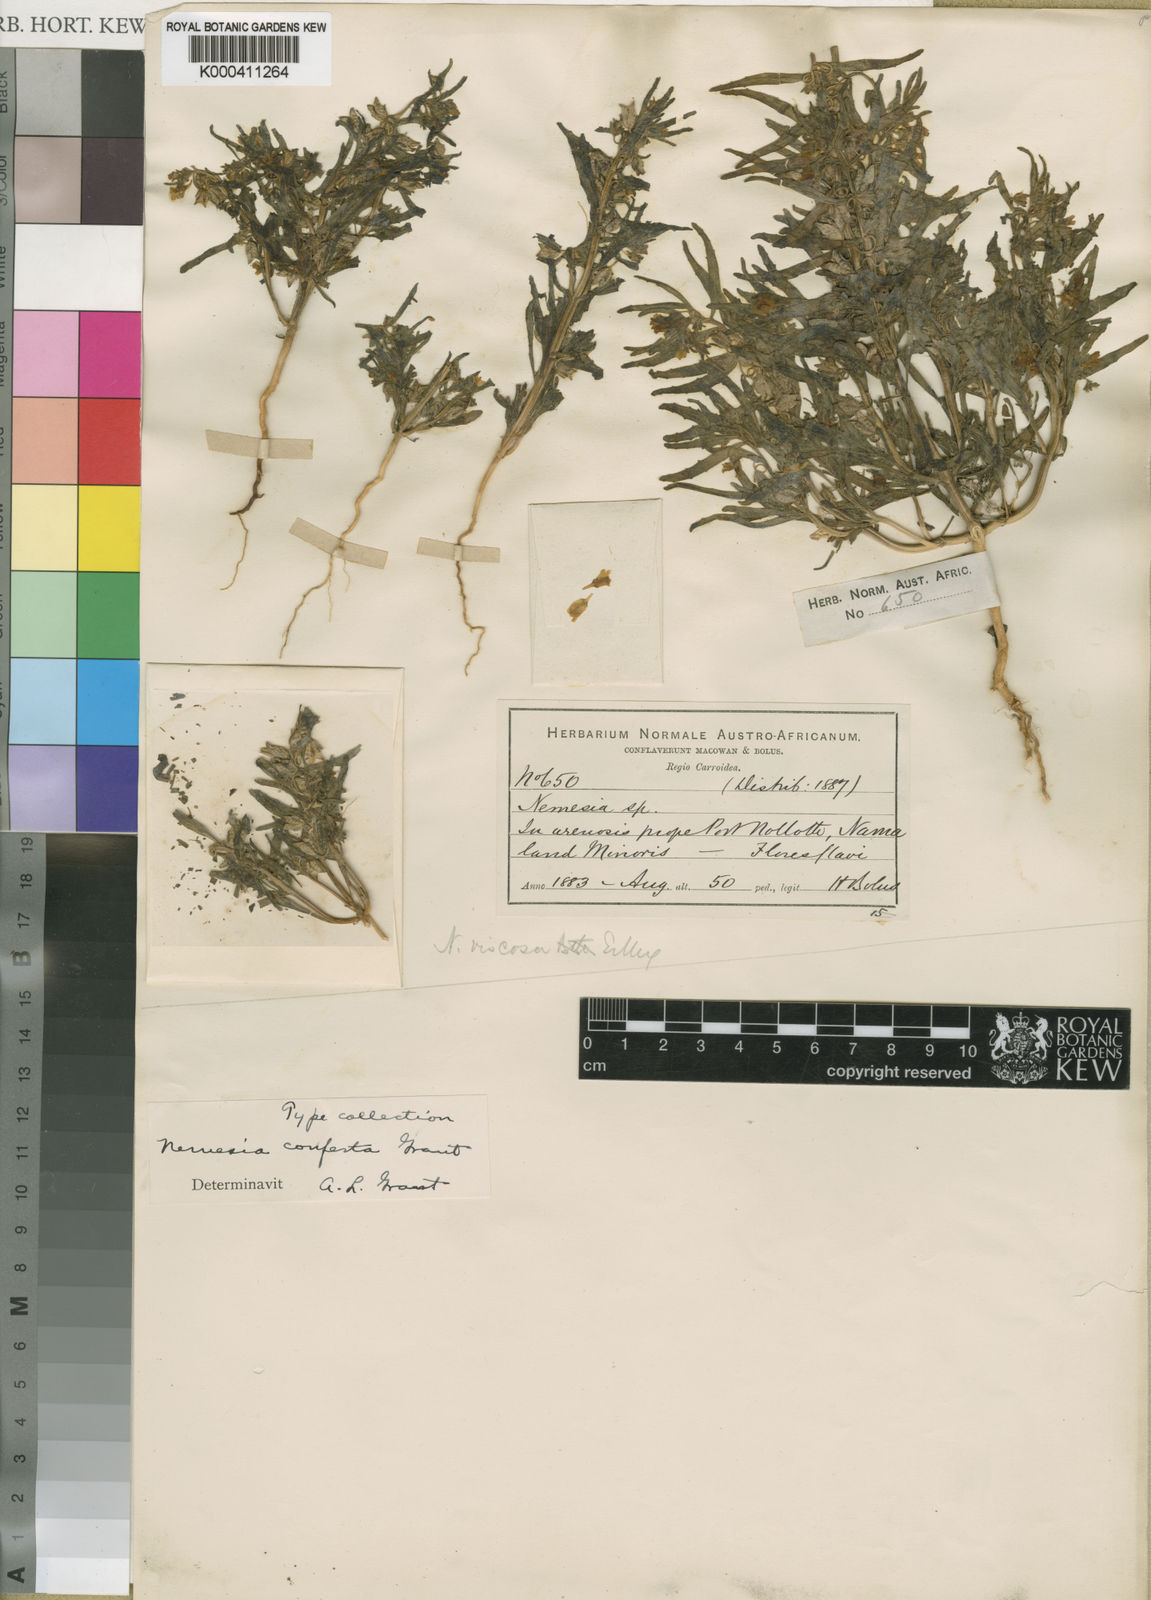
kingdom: Plantae
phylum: Tracheophyta
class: Magnoliopsida
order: Lamiales
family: Scrophulariaceae
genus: Nemesia
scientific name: Nemesia
